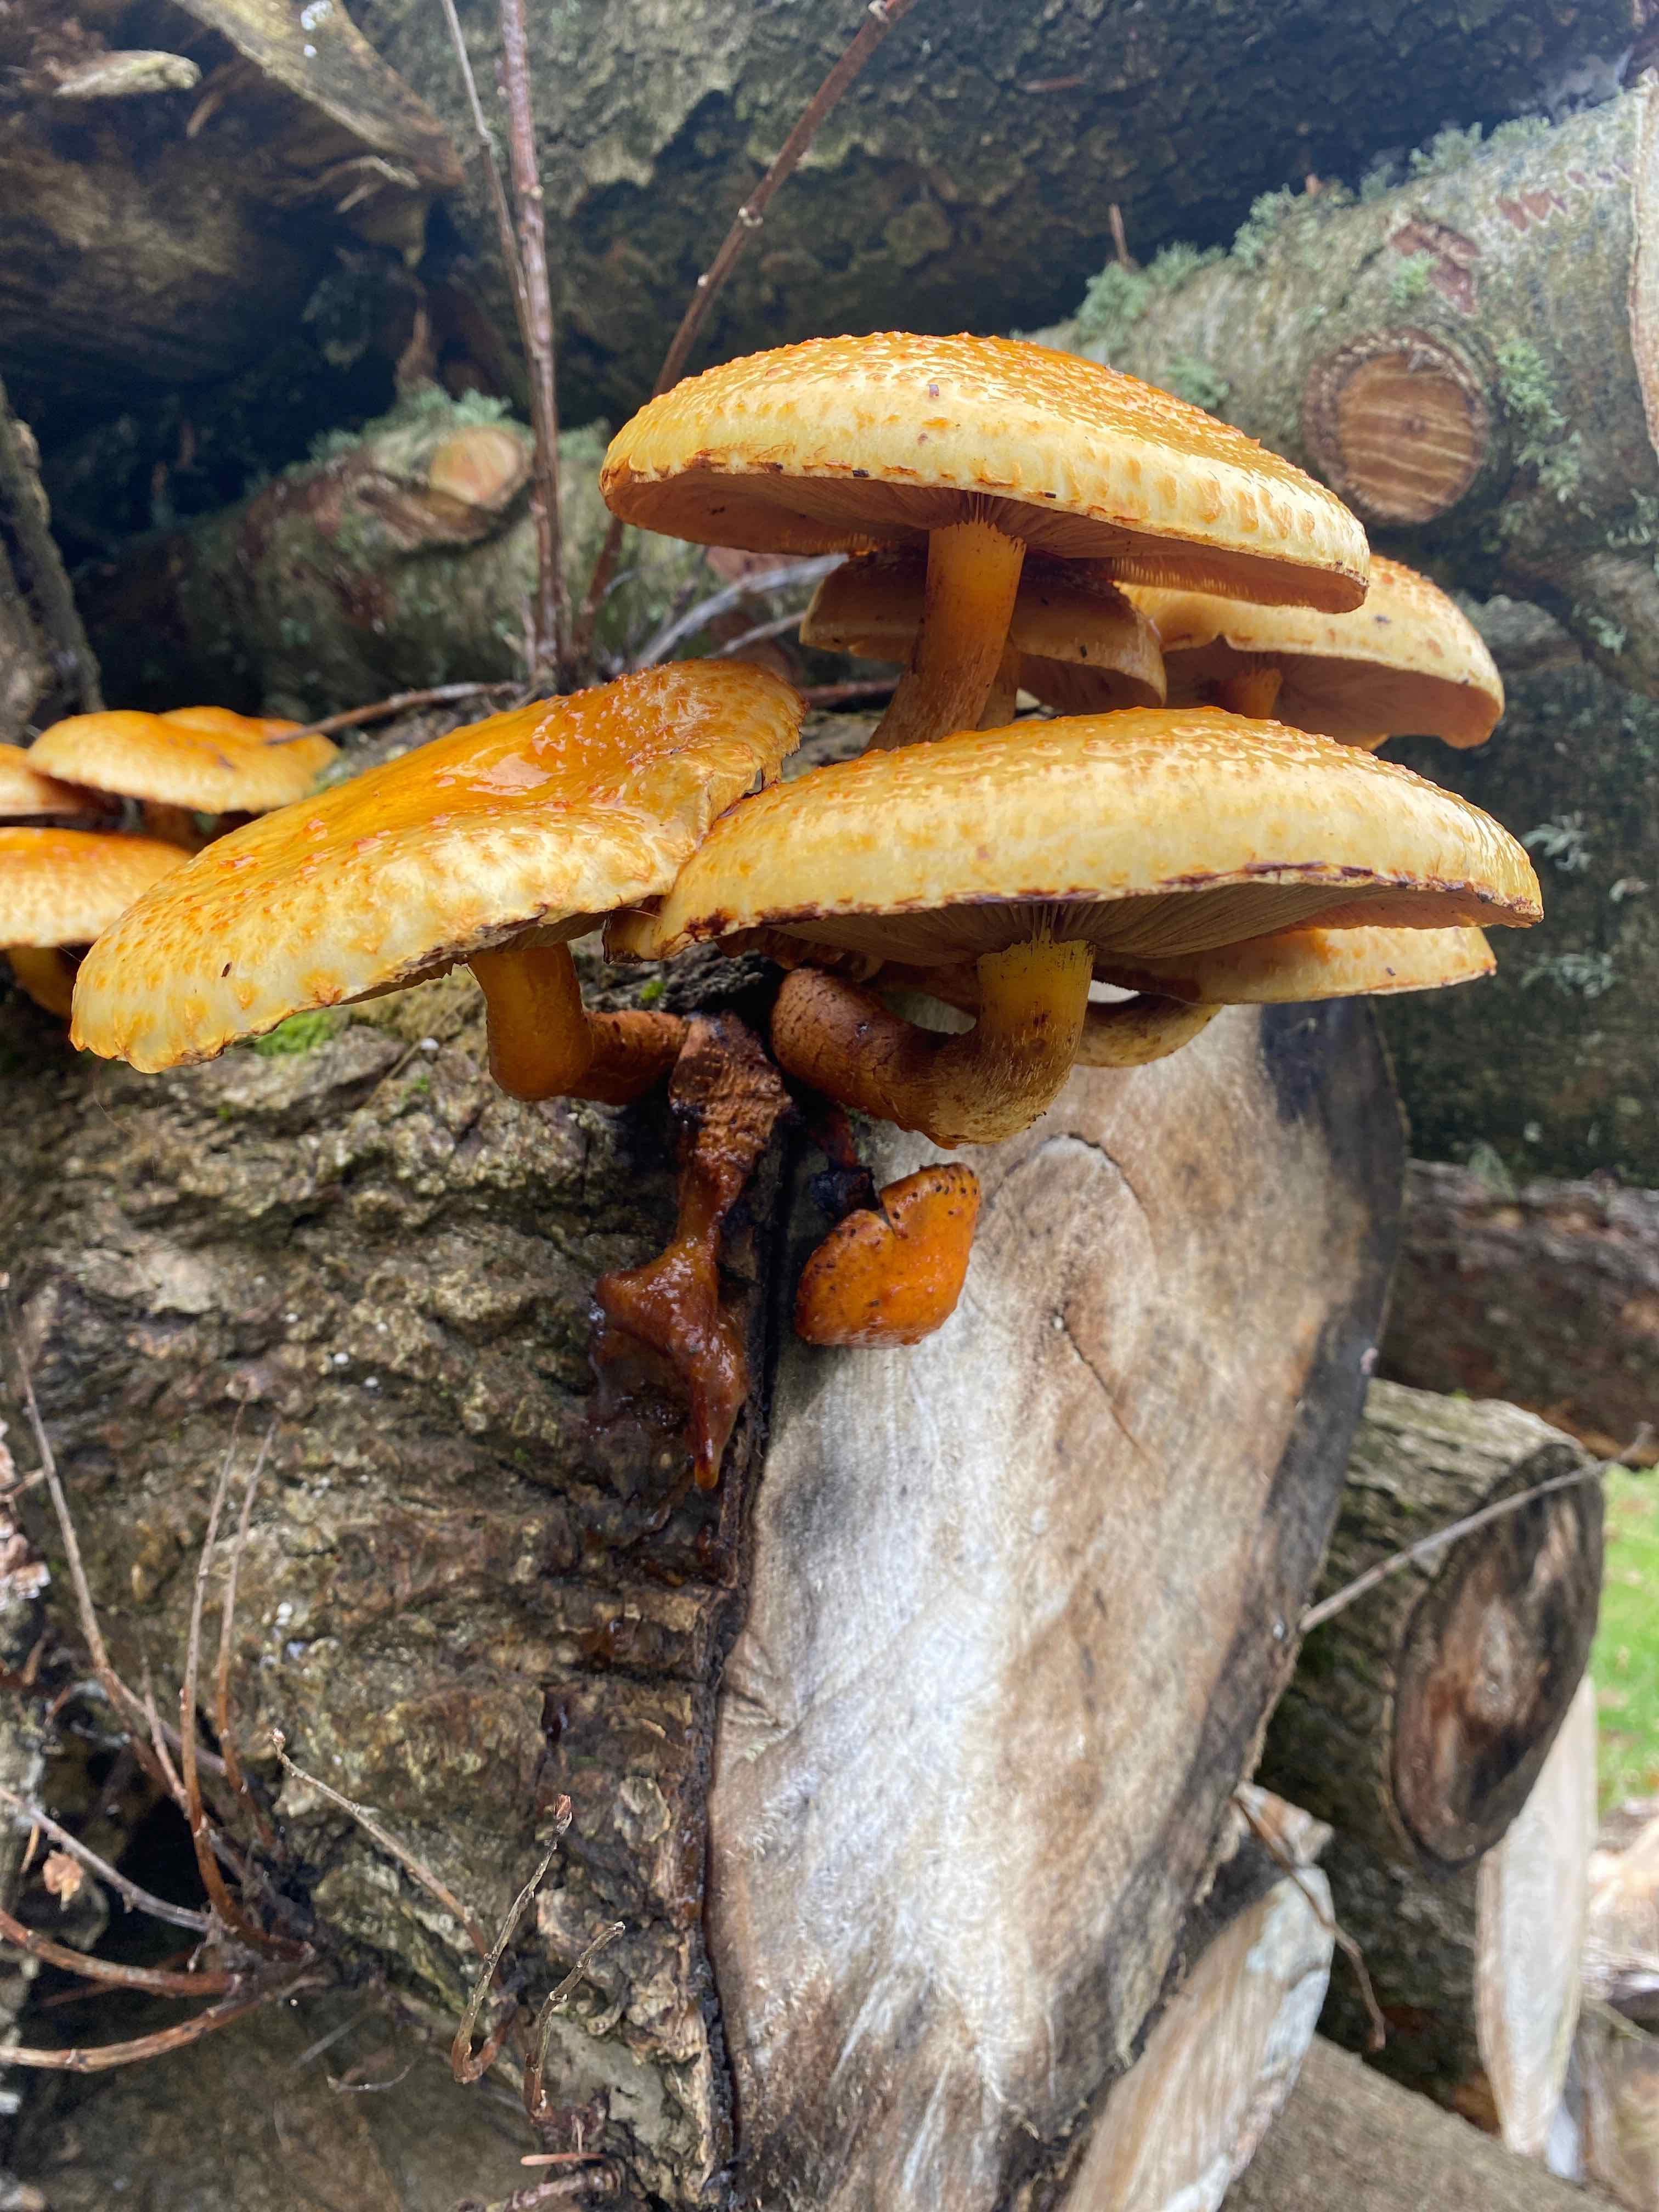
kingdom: Fungi
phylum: Basidiomycota
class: Agaricomycetes
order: Agaricales
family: Strophariaceae
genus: Pholiota
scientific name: Pholiota adiposa
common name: højtsiddende skælhat
